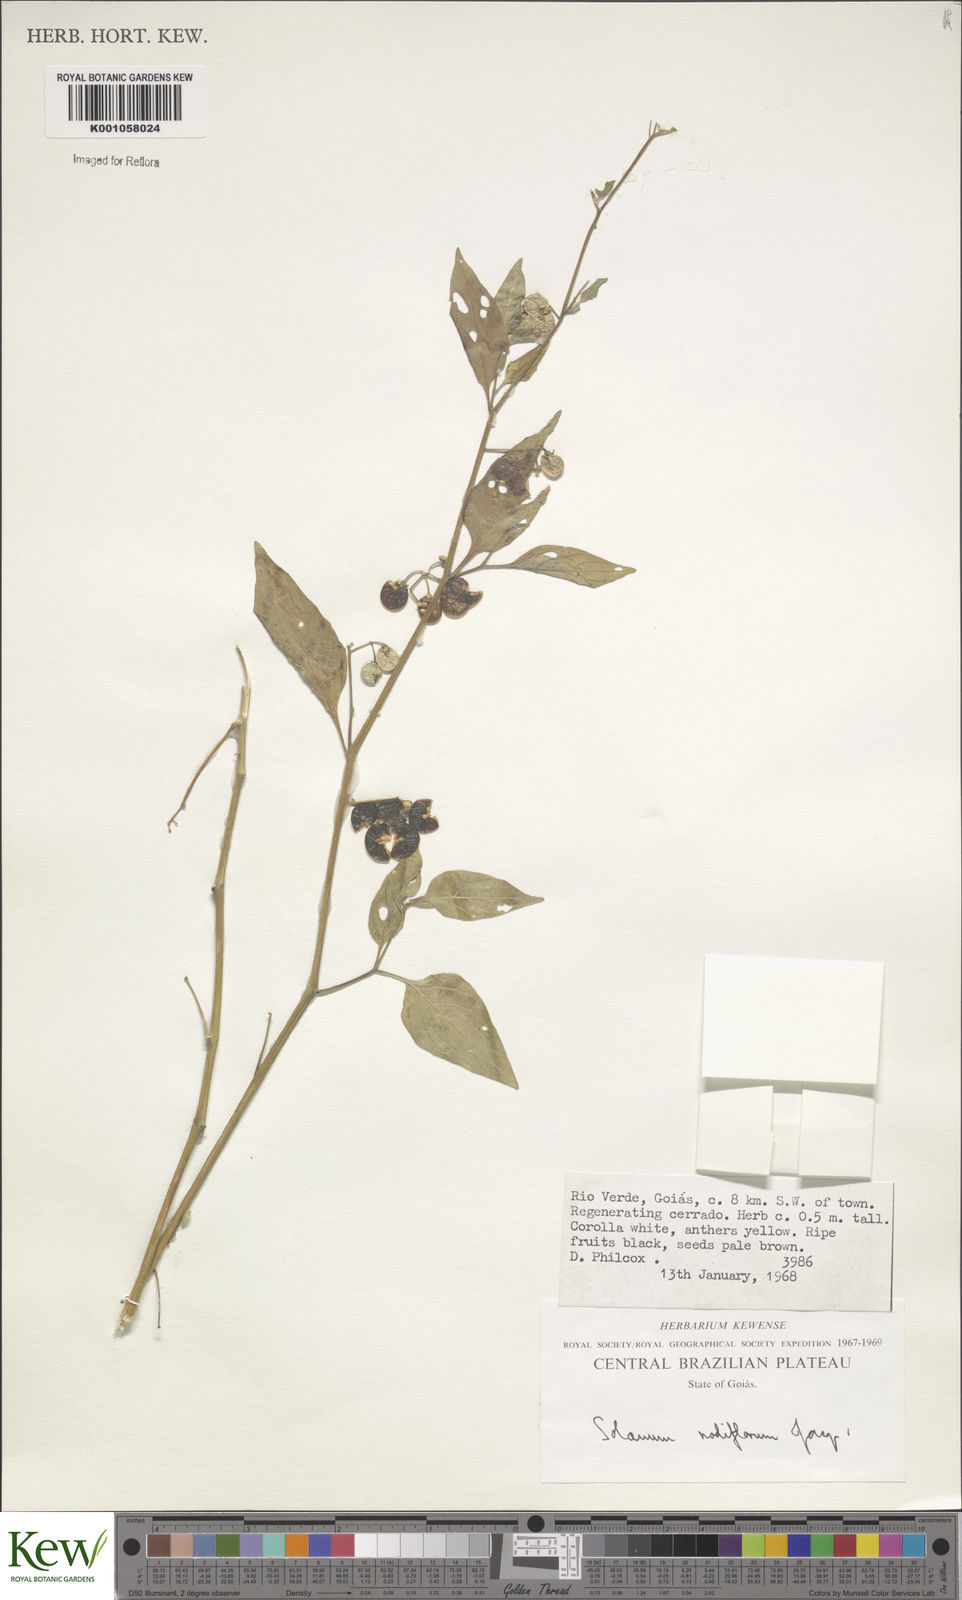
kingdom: Plantae
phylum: Tracheophyta
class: Magnoliopsida
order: Solanales
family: Solanaceae
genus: Solanum
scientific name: Solanum americanum
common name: American black nightshade
